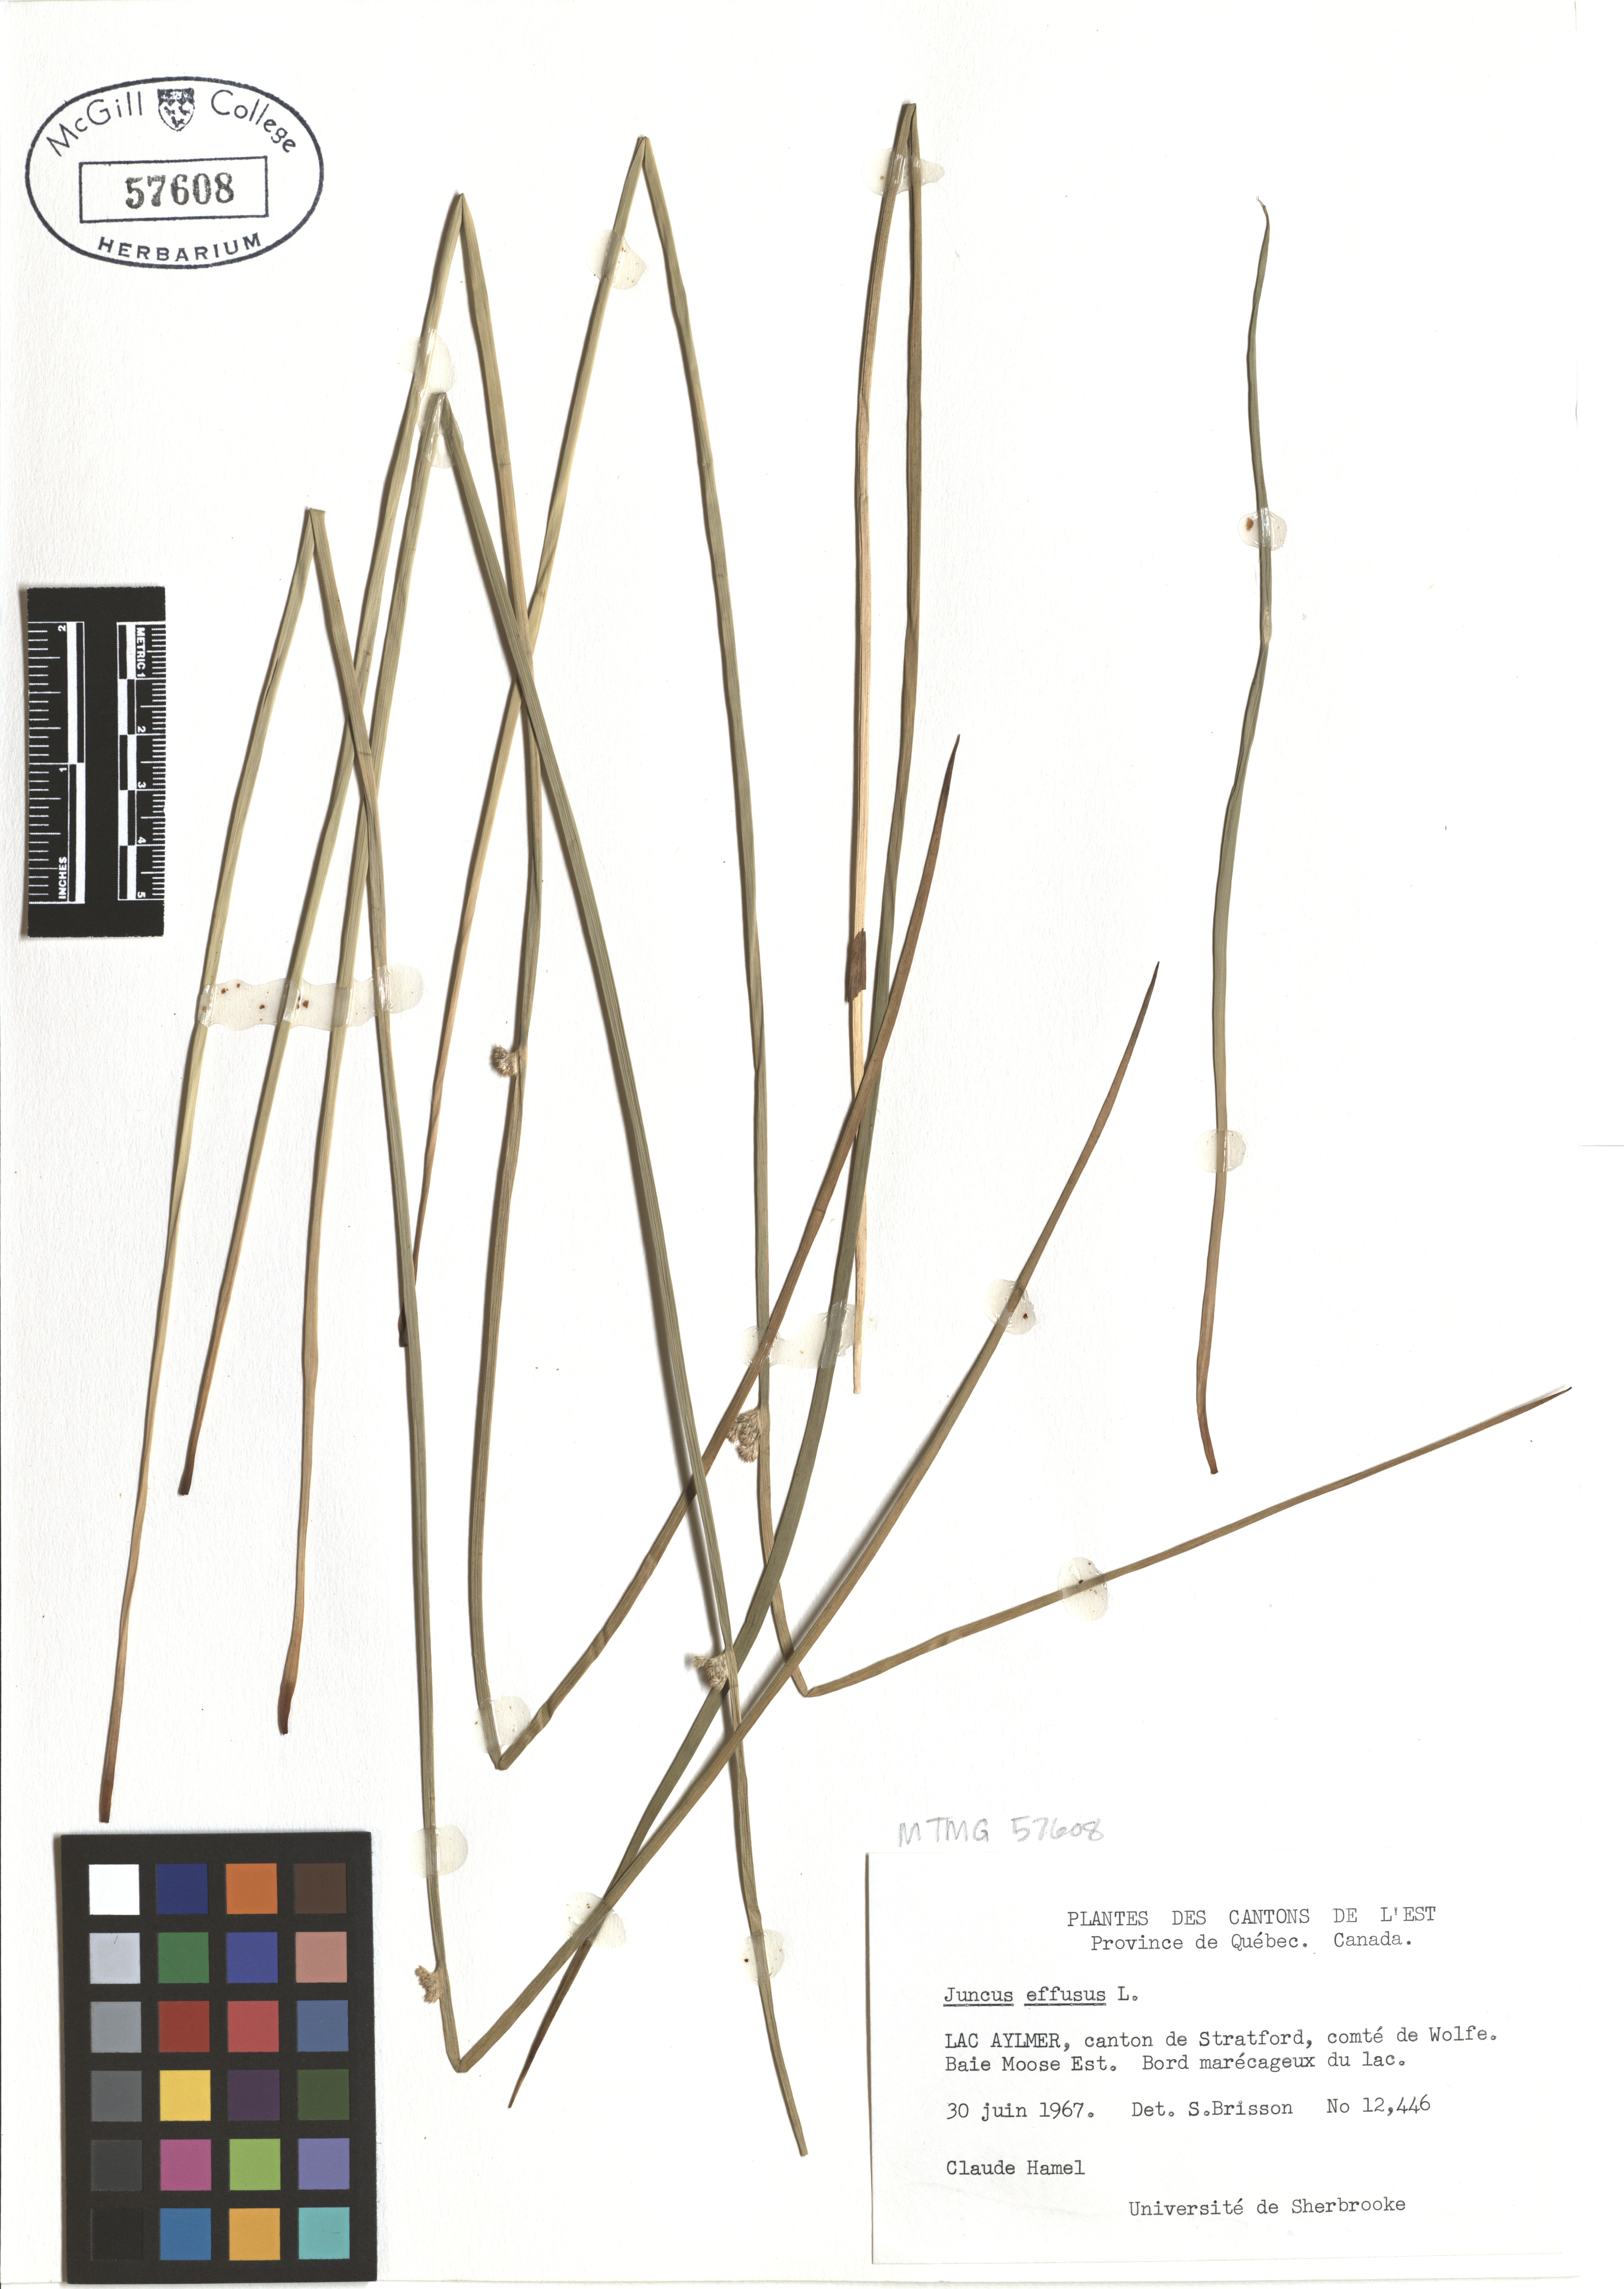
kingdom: Plantae
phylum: Tracheophyta
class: Liliopsida
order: Poales
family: Juncaceae
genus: Juncus
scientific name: Juncus effusus
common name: Soft rush
